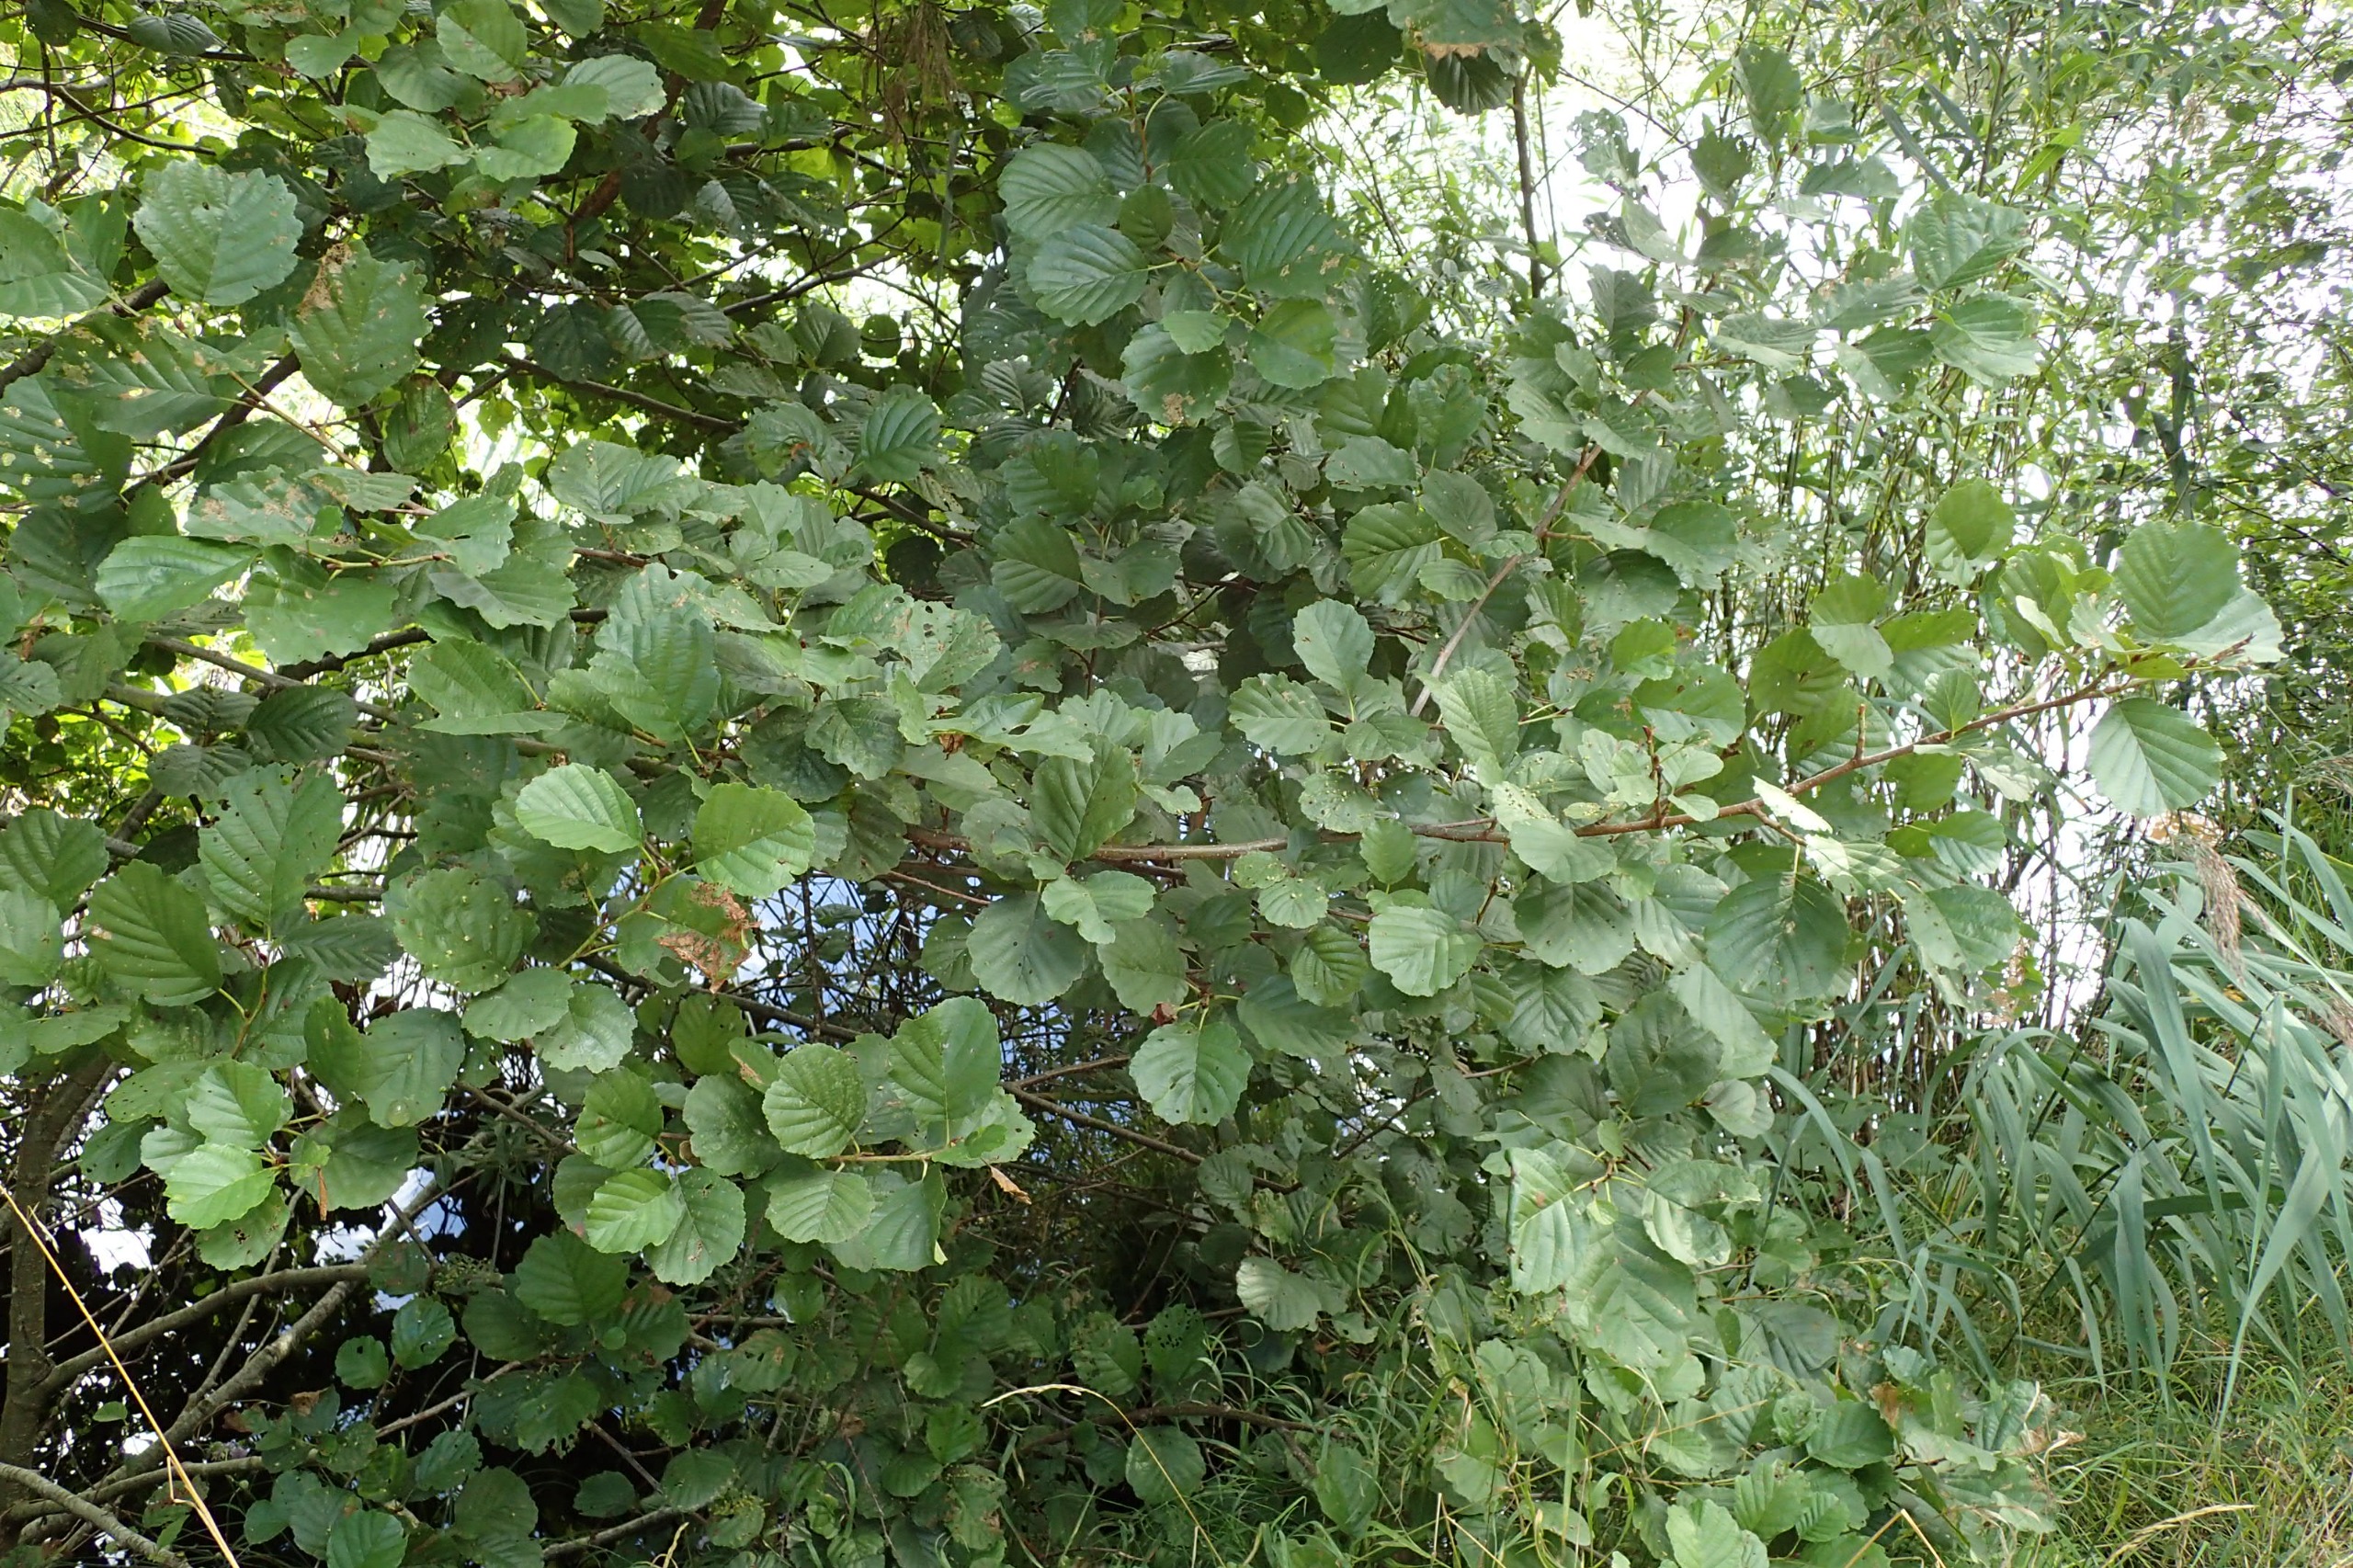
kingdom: Plantae
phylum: Tracheophyta
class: Magnoliopsida
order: Fagales
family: Betulaceae
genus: Alnus
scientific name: Alnus glutinosa
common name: Rød-el
